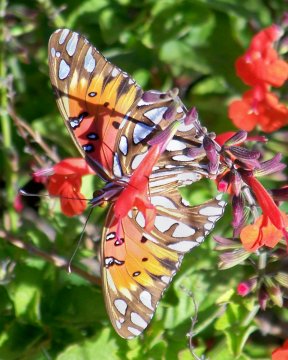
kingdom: Animalia
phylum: Arthropoda
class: Insecta
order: Lepidoptera
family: Nymphalidae
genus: Dione
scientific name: Dione vanillae
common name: Gulf Fritillary
